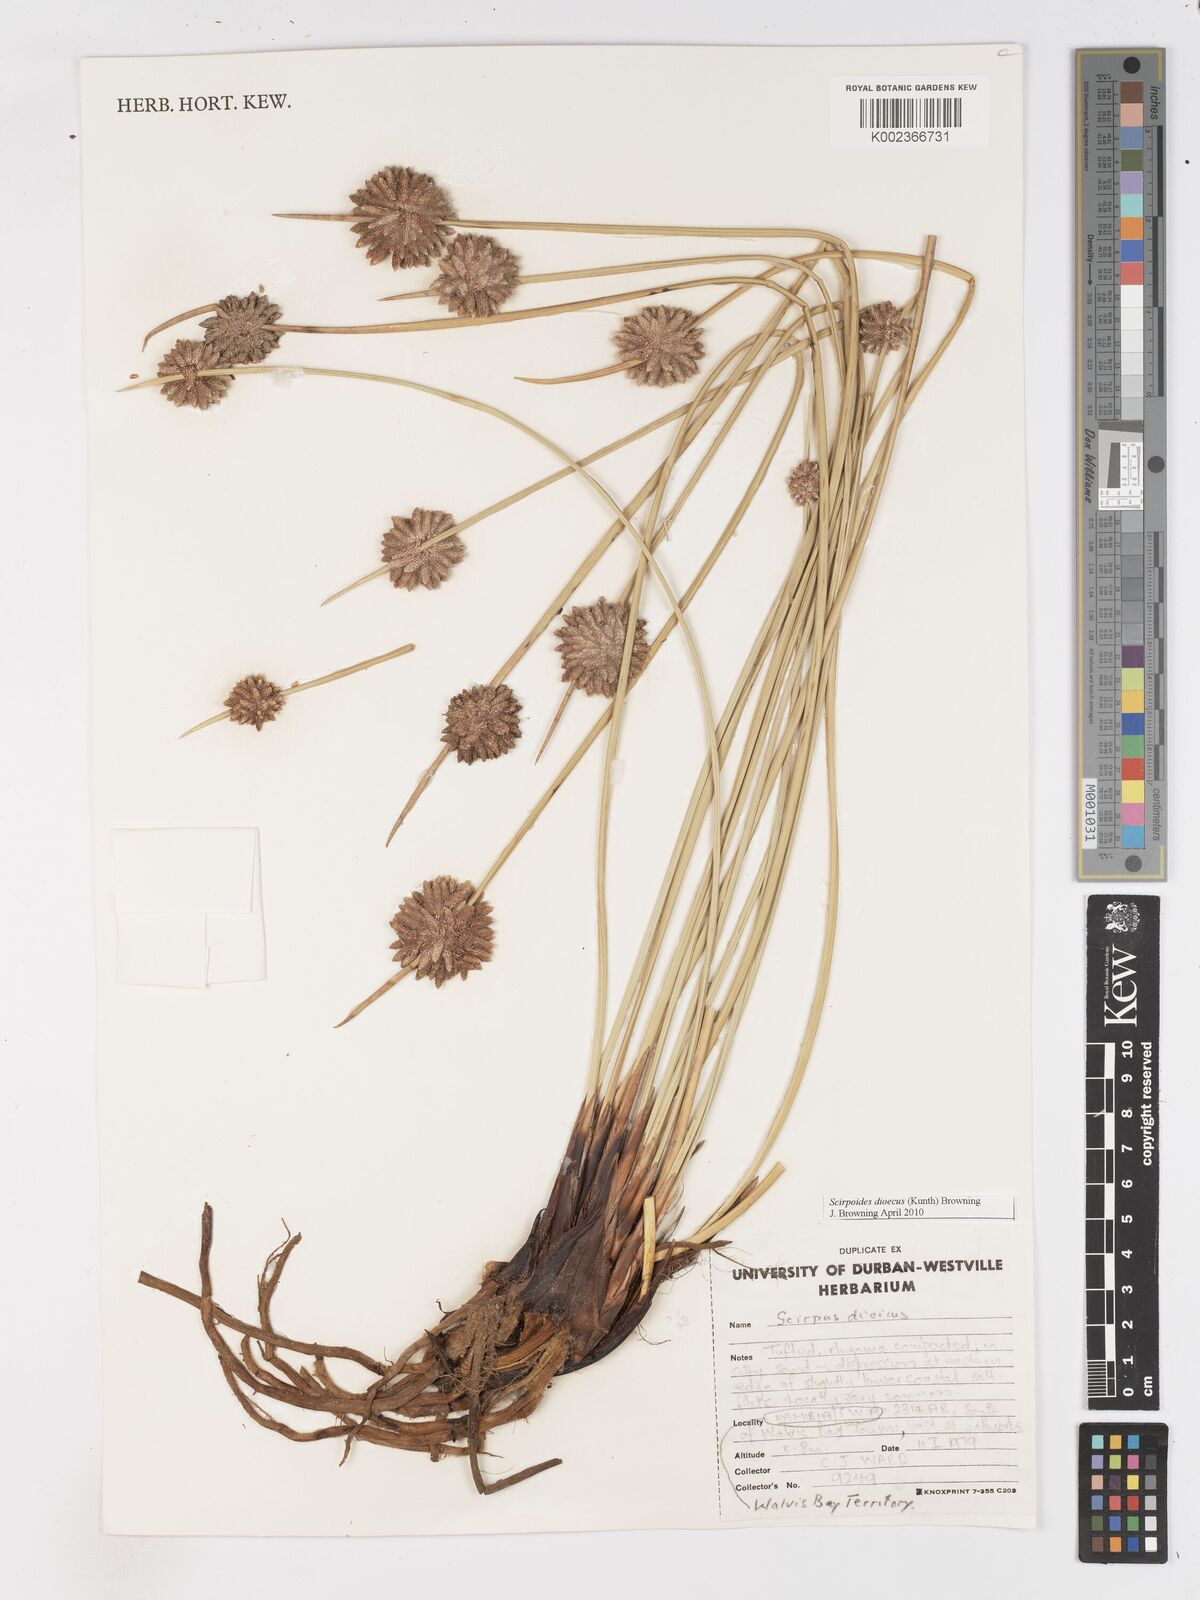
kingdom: Plantae
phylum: Tracheophyta
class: Liliopsida
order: Poales
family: Cyperaceae
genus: Scirpoides
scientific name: Scirpoides
